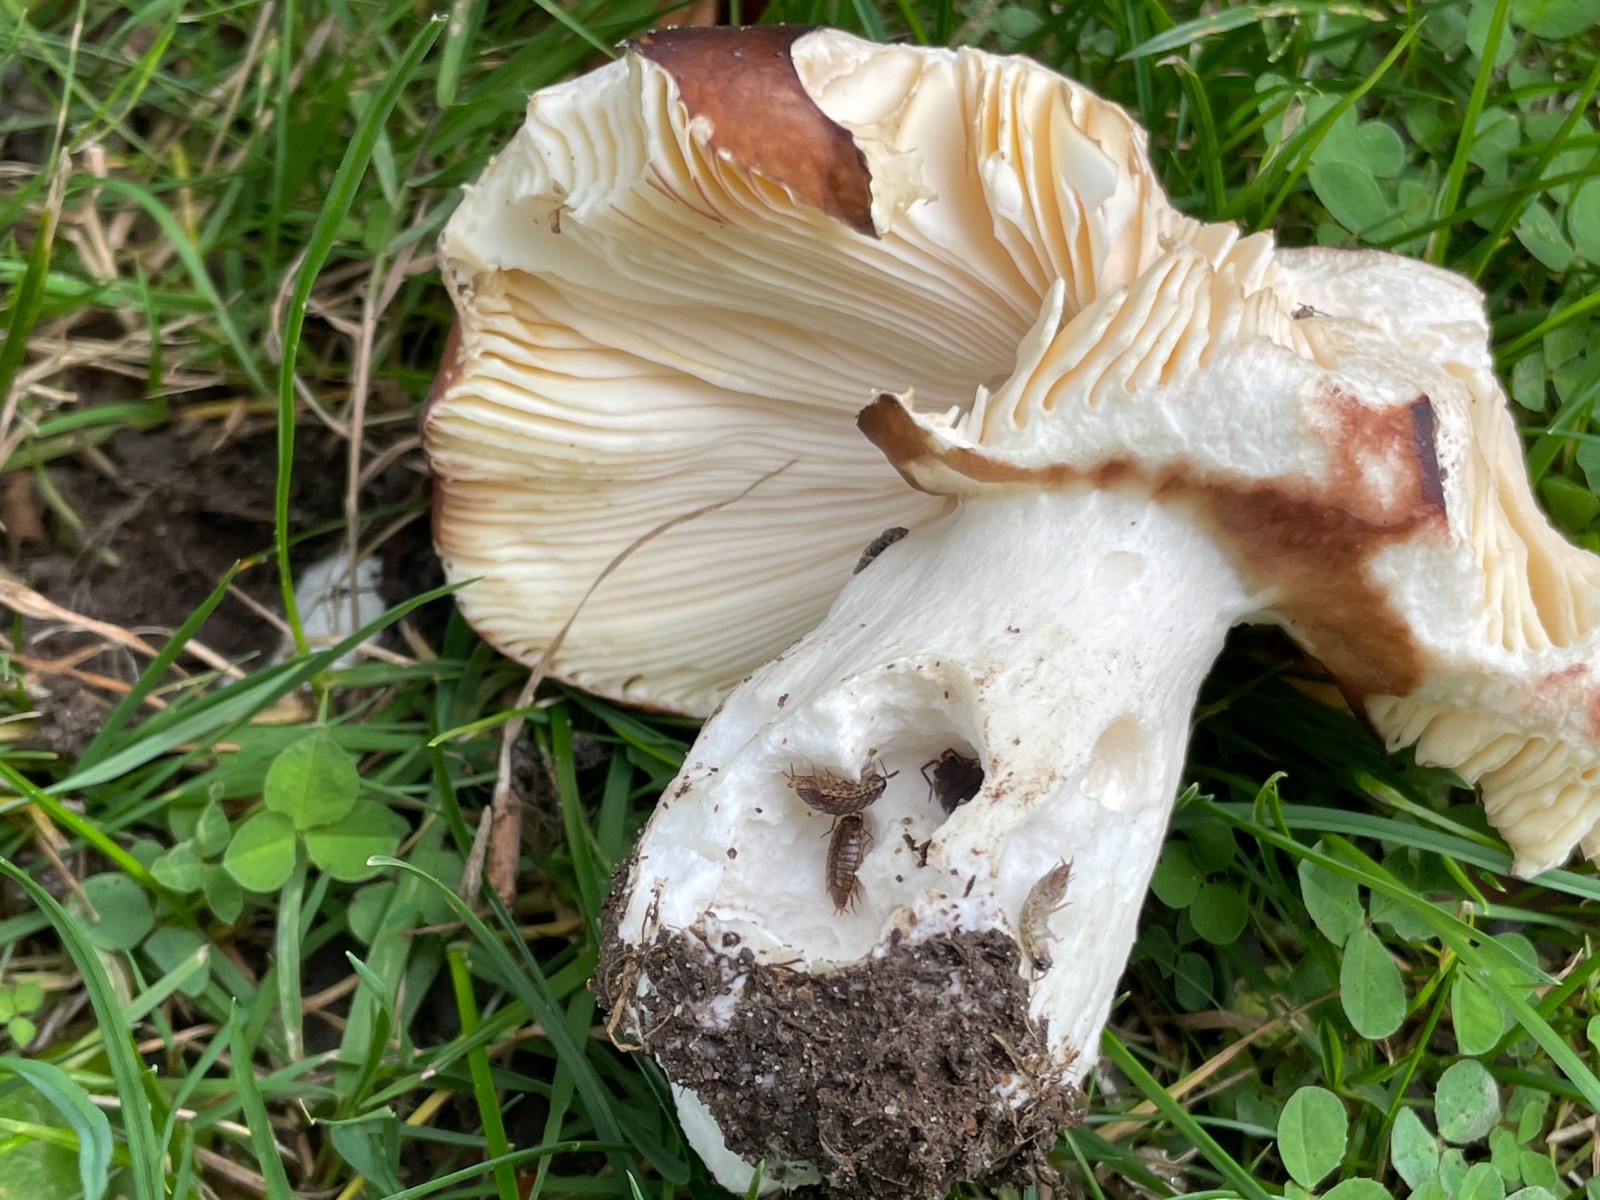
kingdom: Fungi
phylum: Basidiomycota
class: Agaricomycetes
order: Russulales
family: Russulaceae
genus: Russula
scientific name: Russula cuprea
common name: kanel-skørhat
